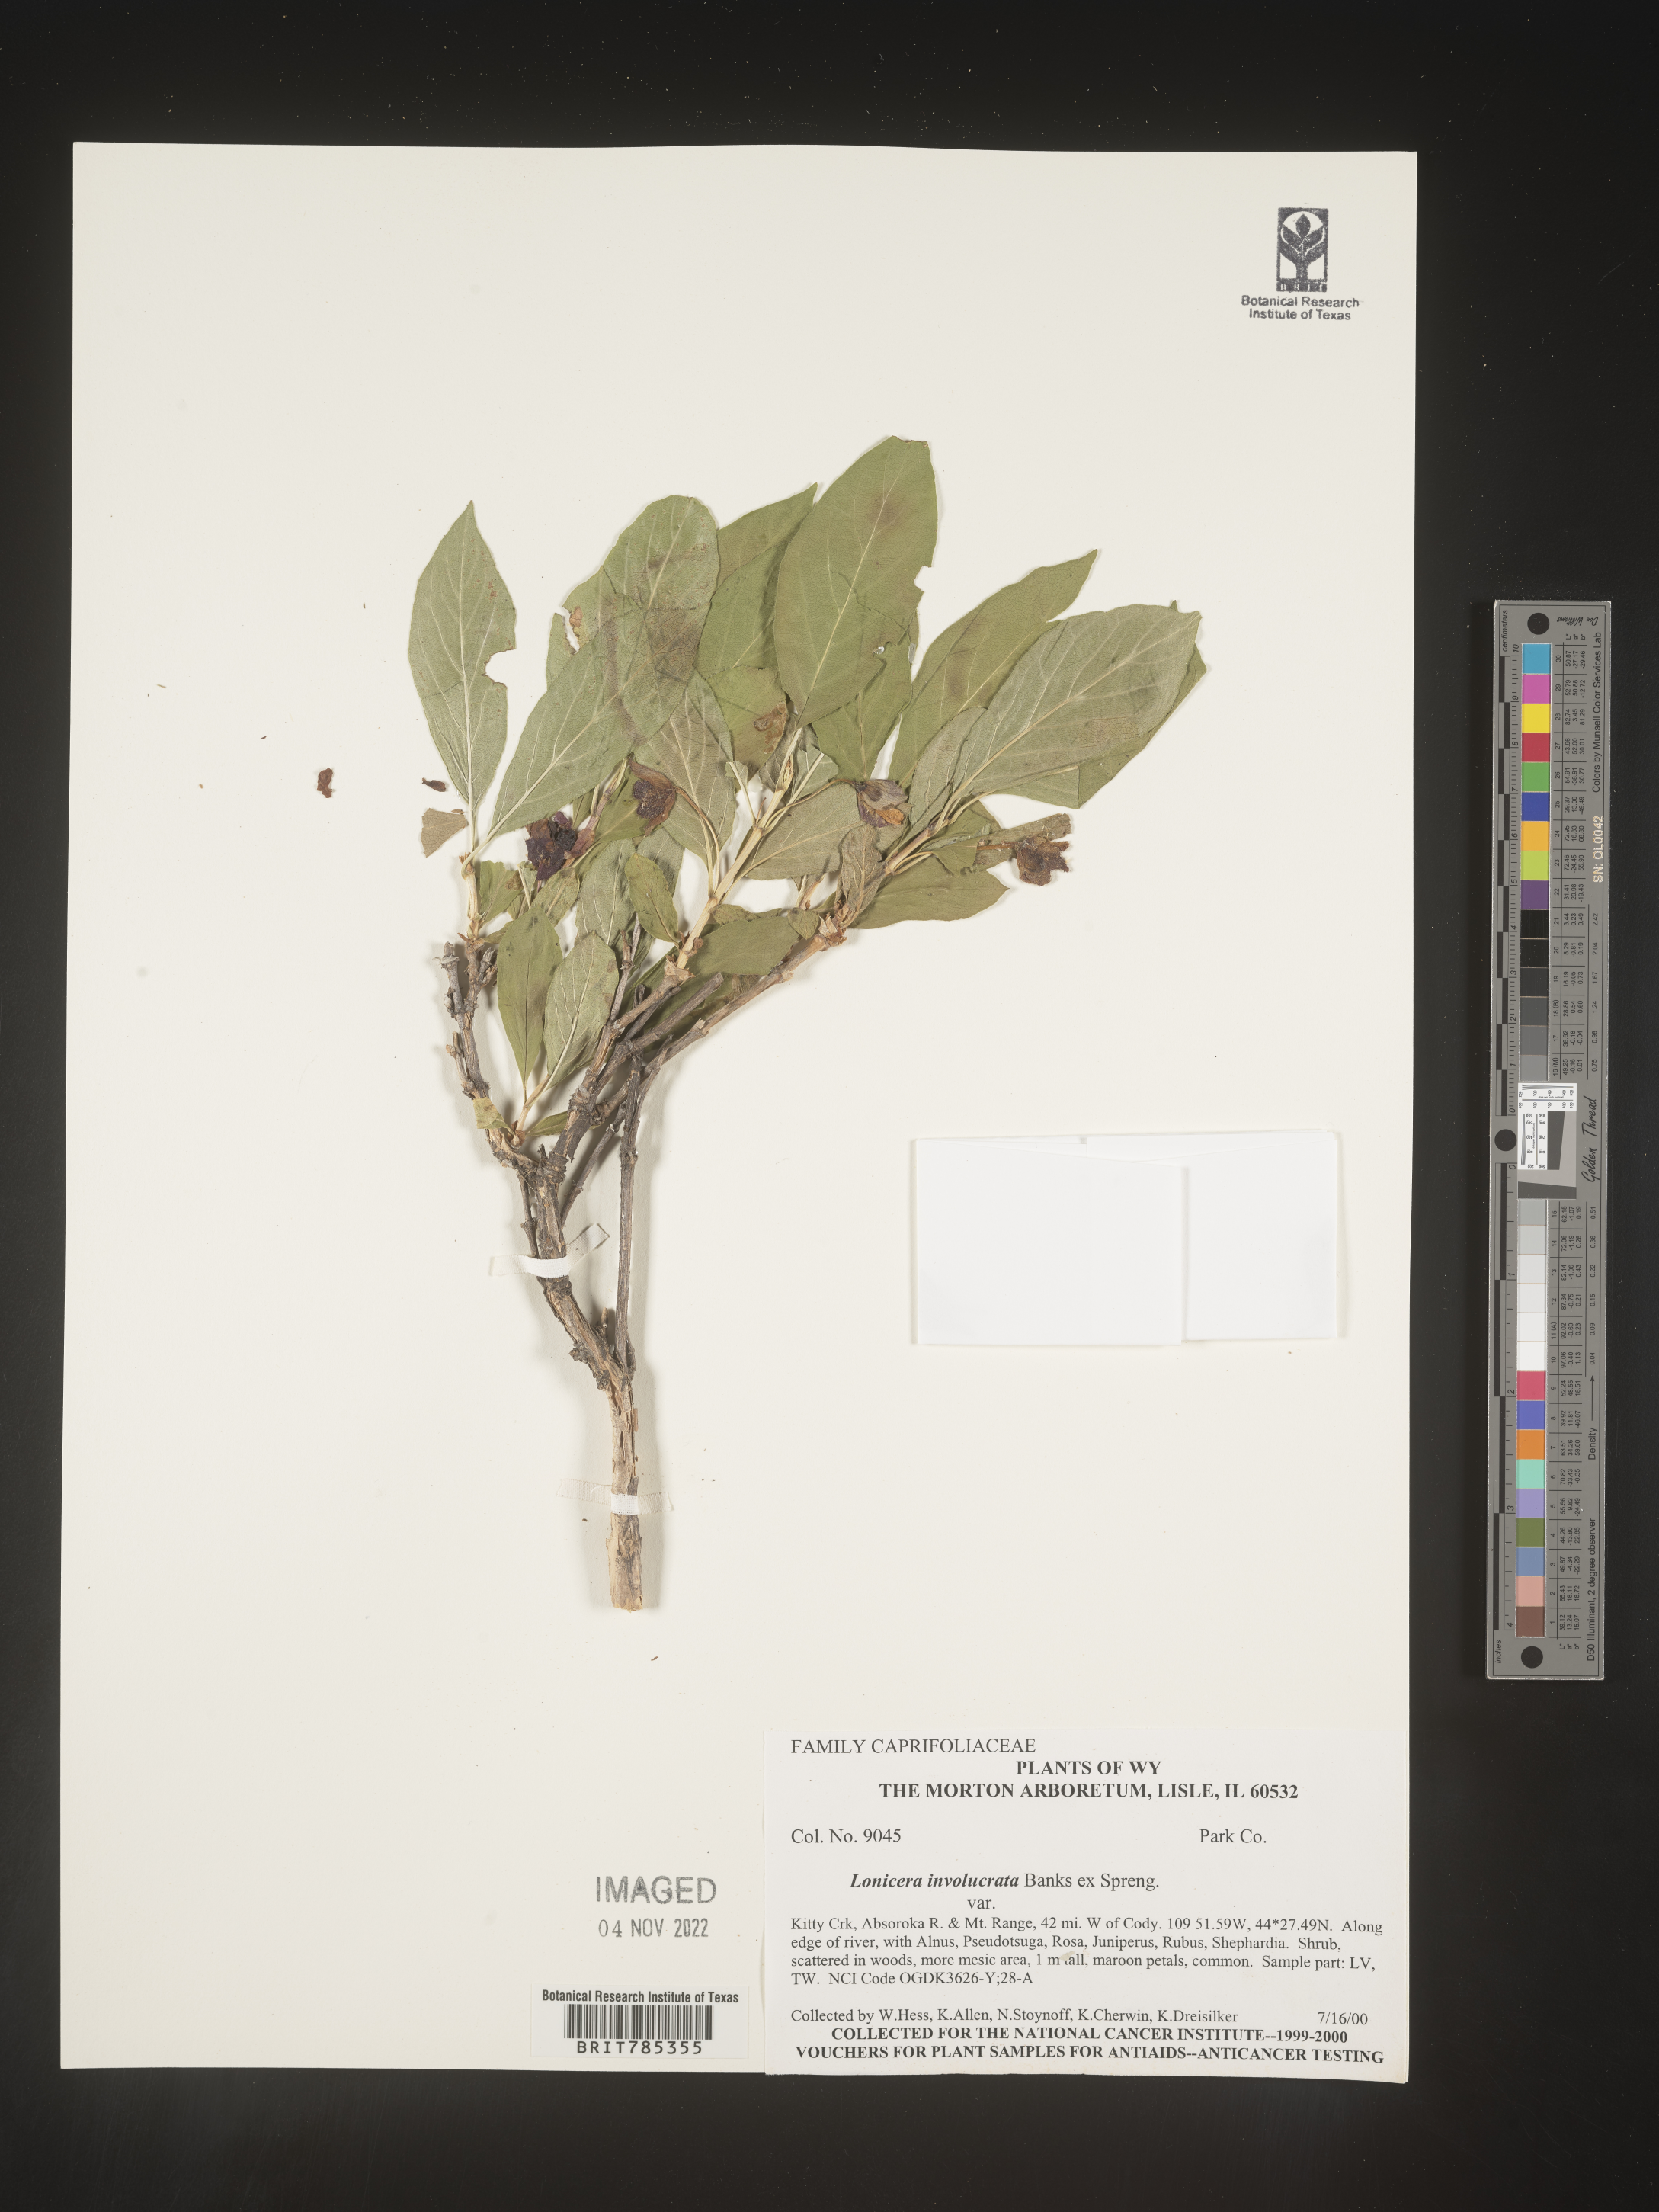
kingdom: Plantae
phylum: Tracheophyta
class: Magnoliopsida
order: Dipsacales
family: Caprifoliaceae
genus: Lonicera
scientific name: Lonicera involucrata
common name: Californian honeysuckle
